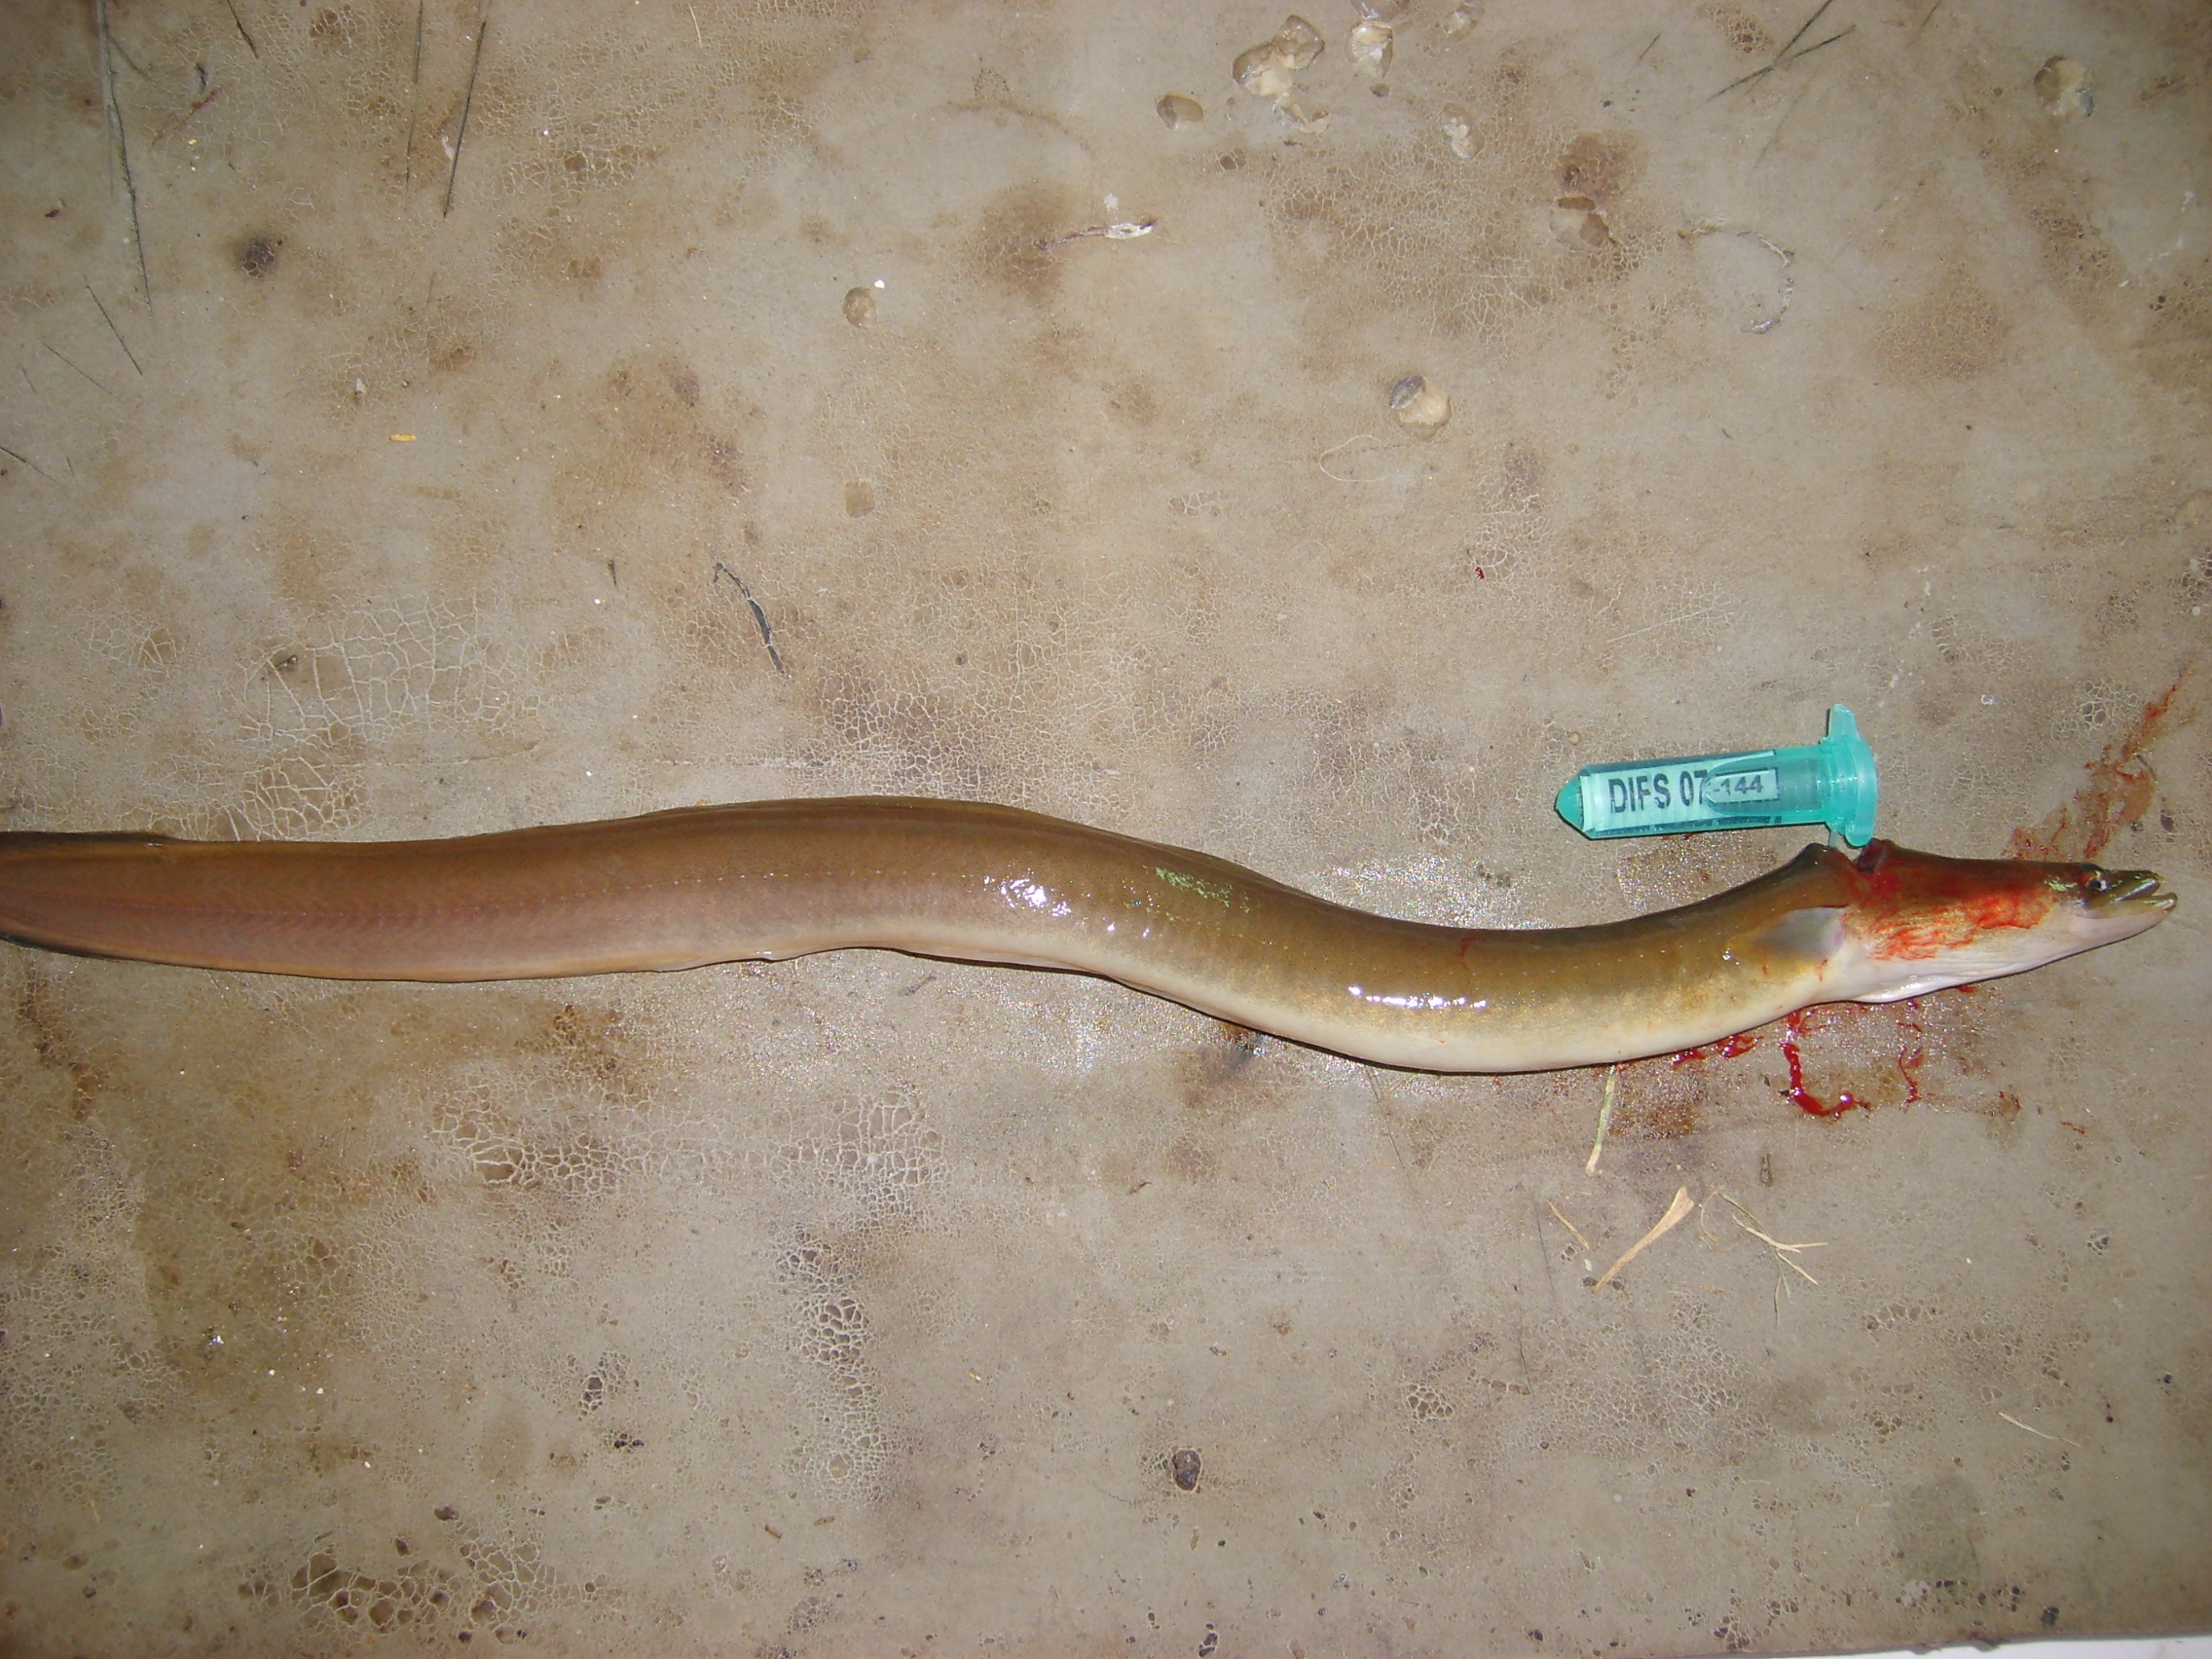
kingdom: Animalia
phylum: Chordata
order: Anguilliformes
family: Anguillidae
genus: Anguilla
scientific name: Anguilla mossambica
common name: African longfin eel
